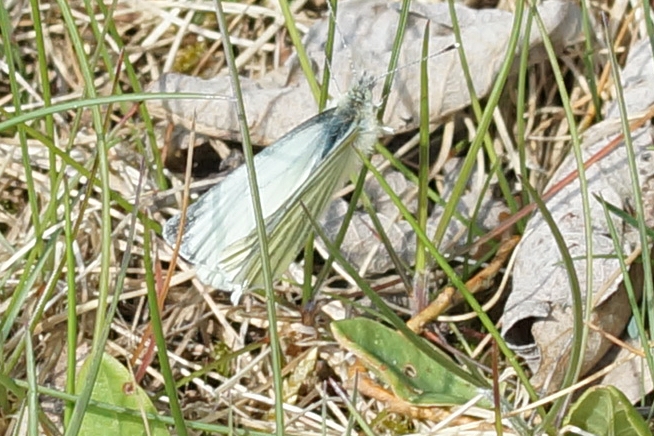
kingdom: Animalia
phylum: Arthropoda
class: Insecta
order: Lepidoptera
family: Pieridae
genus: Pieris
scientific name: Pieris napi
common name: Grønåret kålsommerfugl
